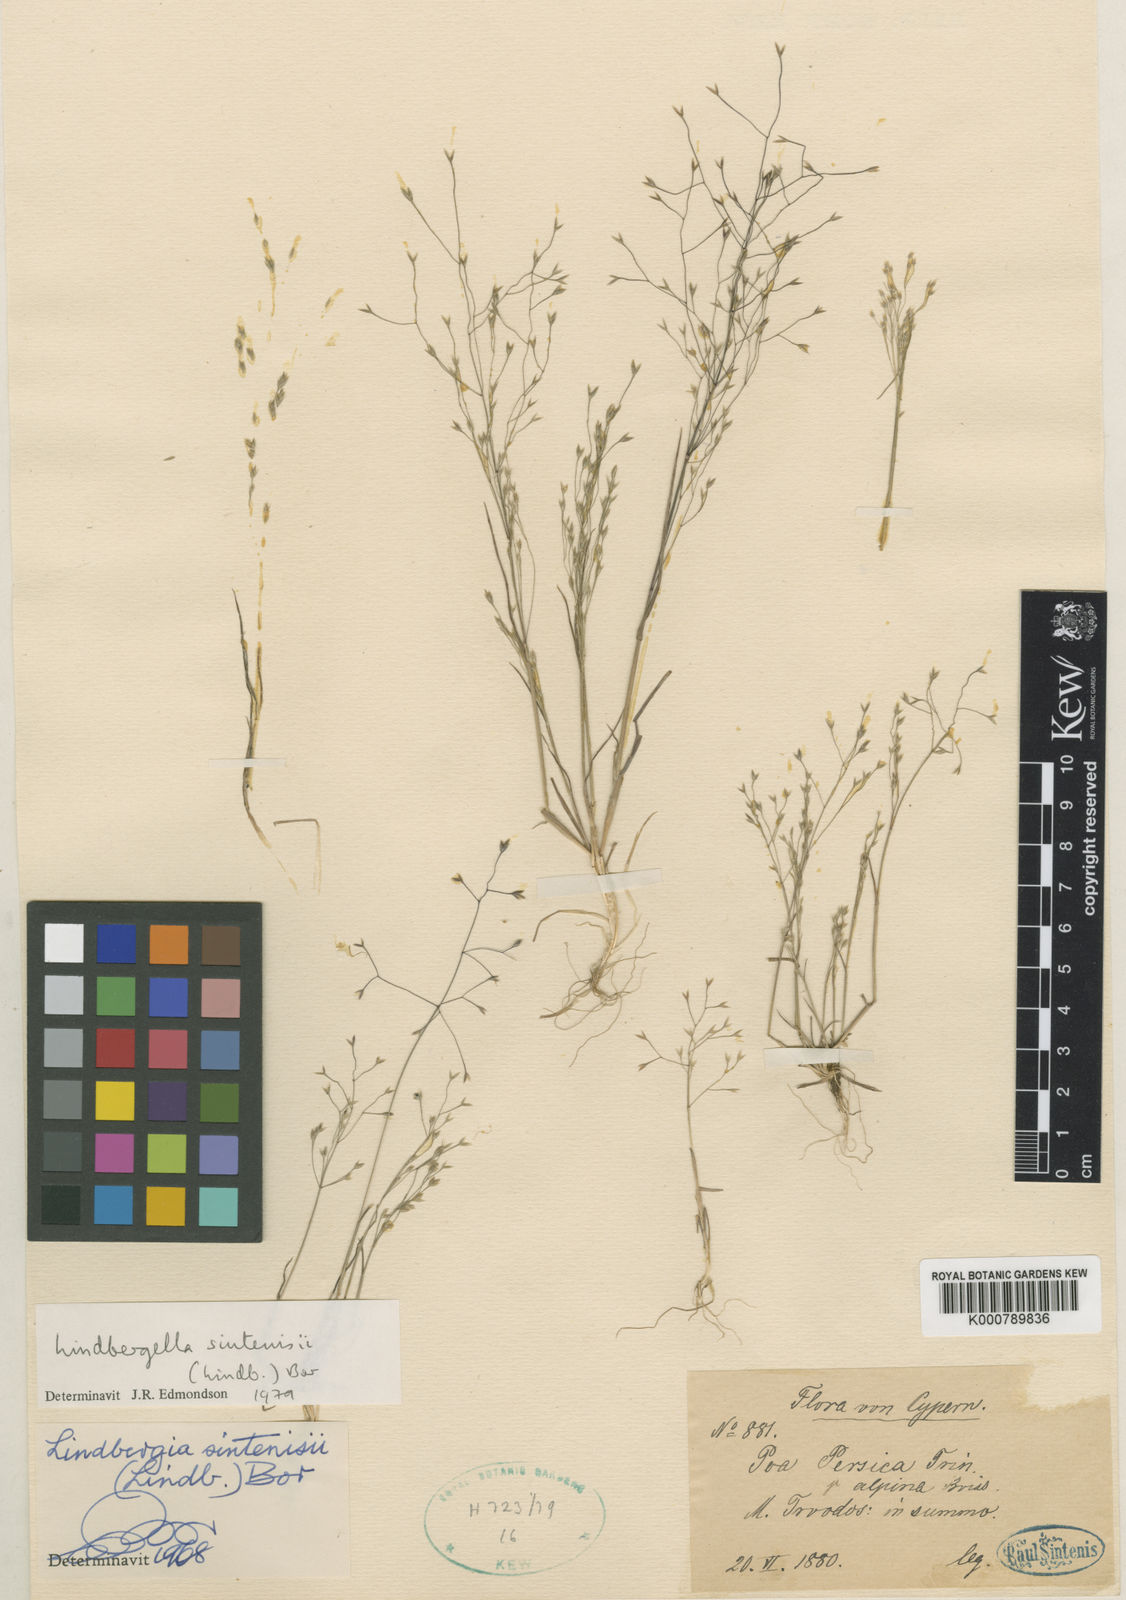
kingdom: Plantae
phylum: Tracheophyta
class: Liliopsida
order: Poales
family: Poaceae
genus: Poa
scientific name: Poa sintenisii
